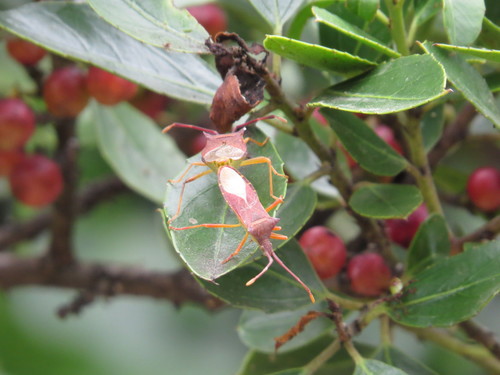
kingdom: Animalia
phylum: Arthropoda
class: Insecta
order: Hemiptera
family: Coreidae
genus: Gonocerus
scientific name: Gonocerus acuteangulatus
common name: Box bug
